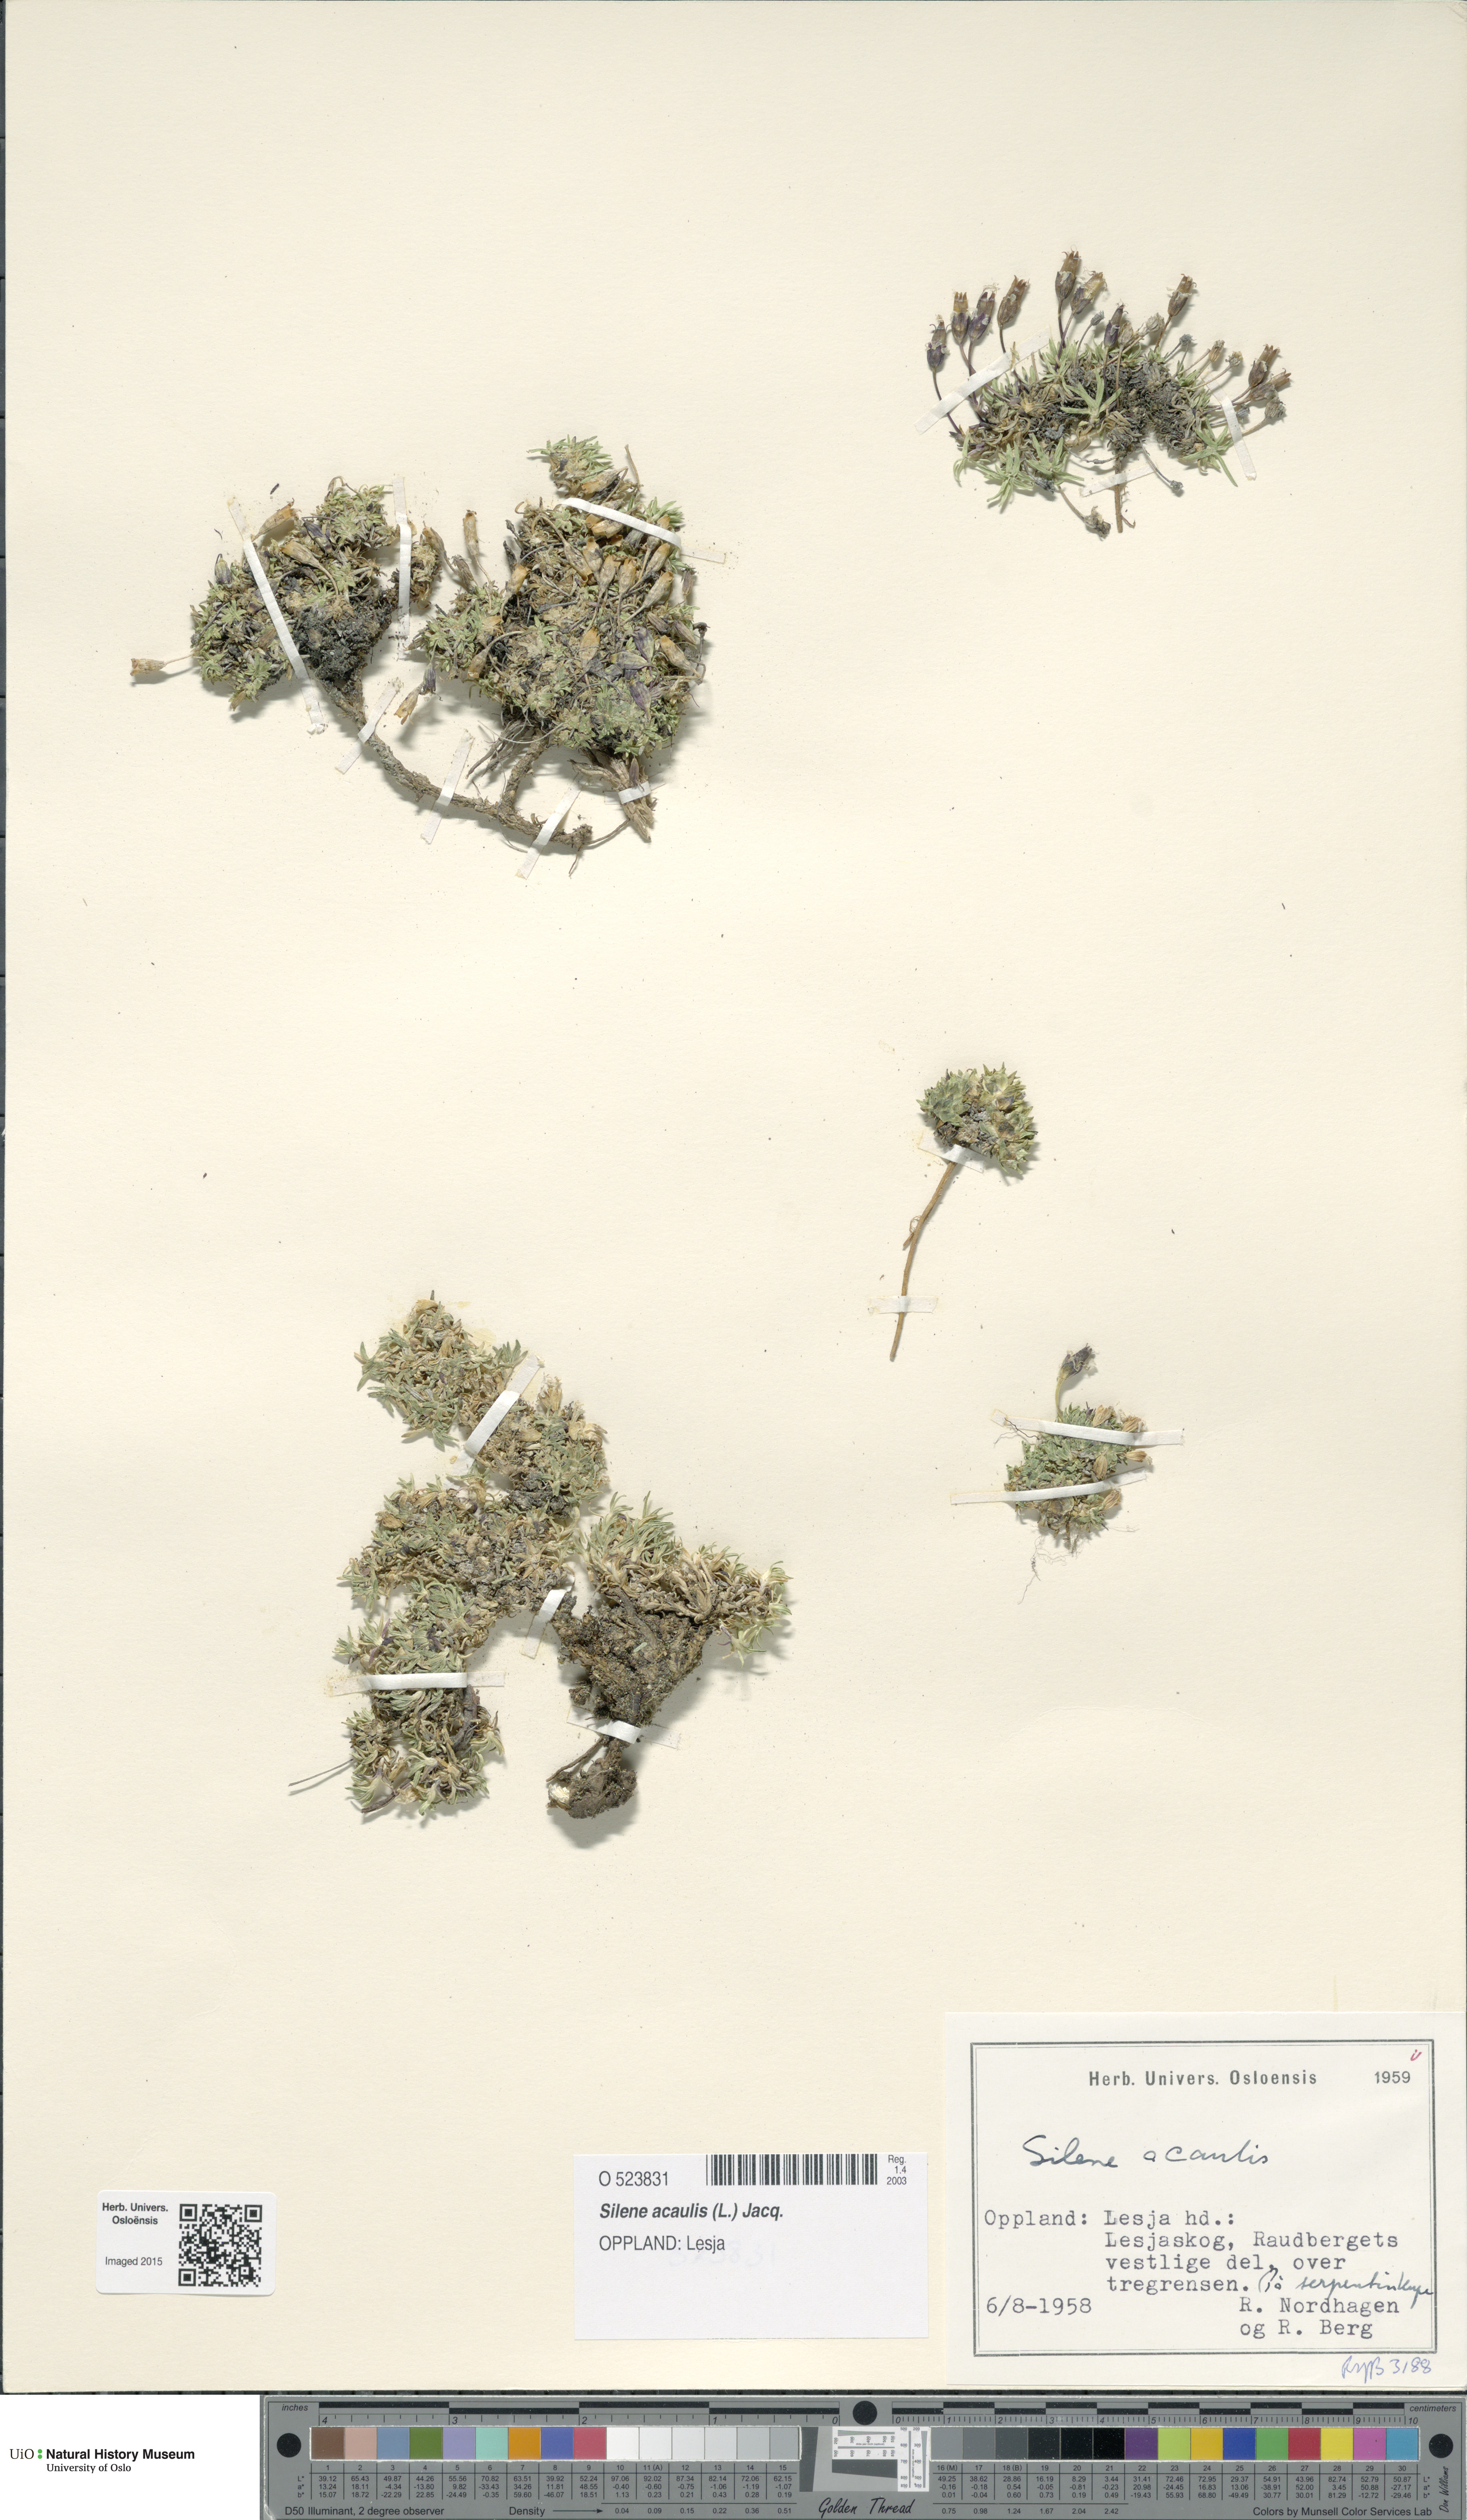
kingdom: Plantae
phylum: Tracheophyta
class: Magnoliopsida
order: Caryophyllales
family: Caryophyllaceae
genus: Silene
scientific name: Silene acaulis
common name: Moss campion
